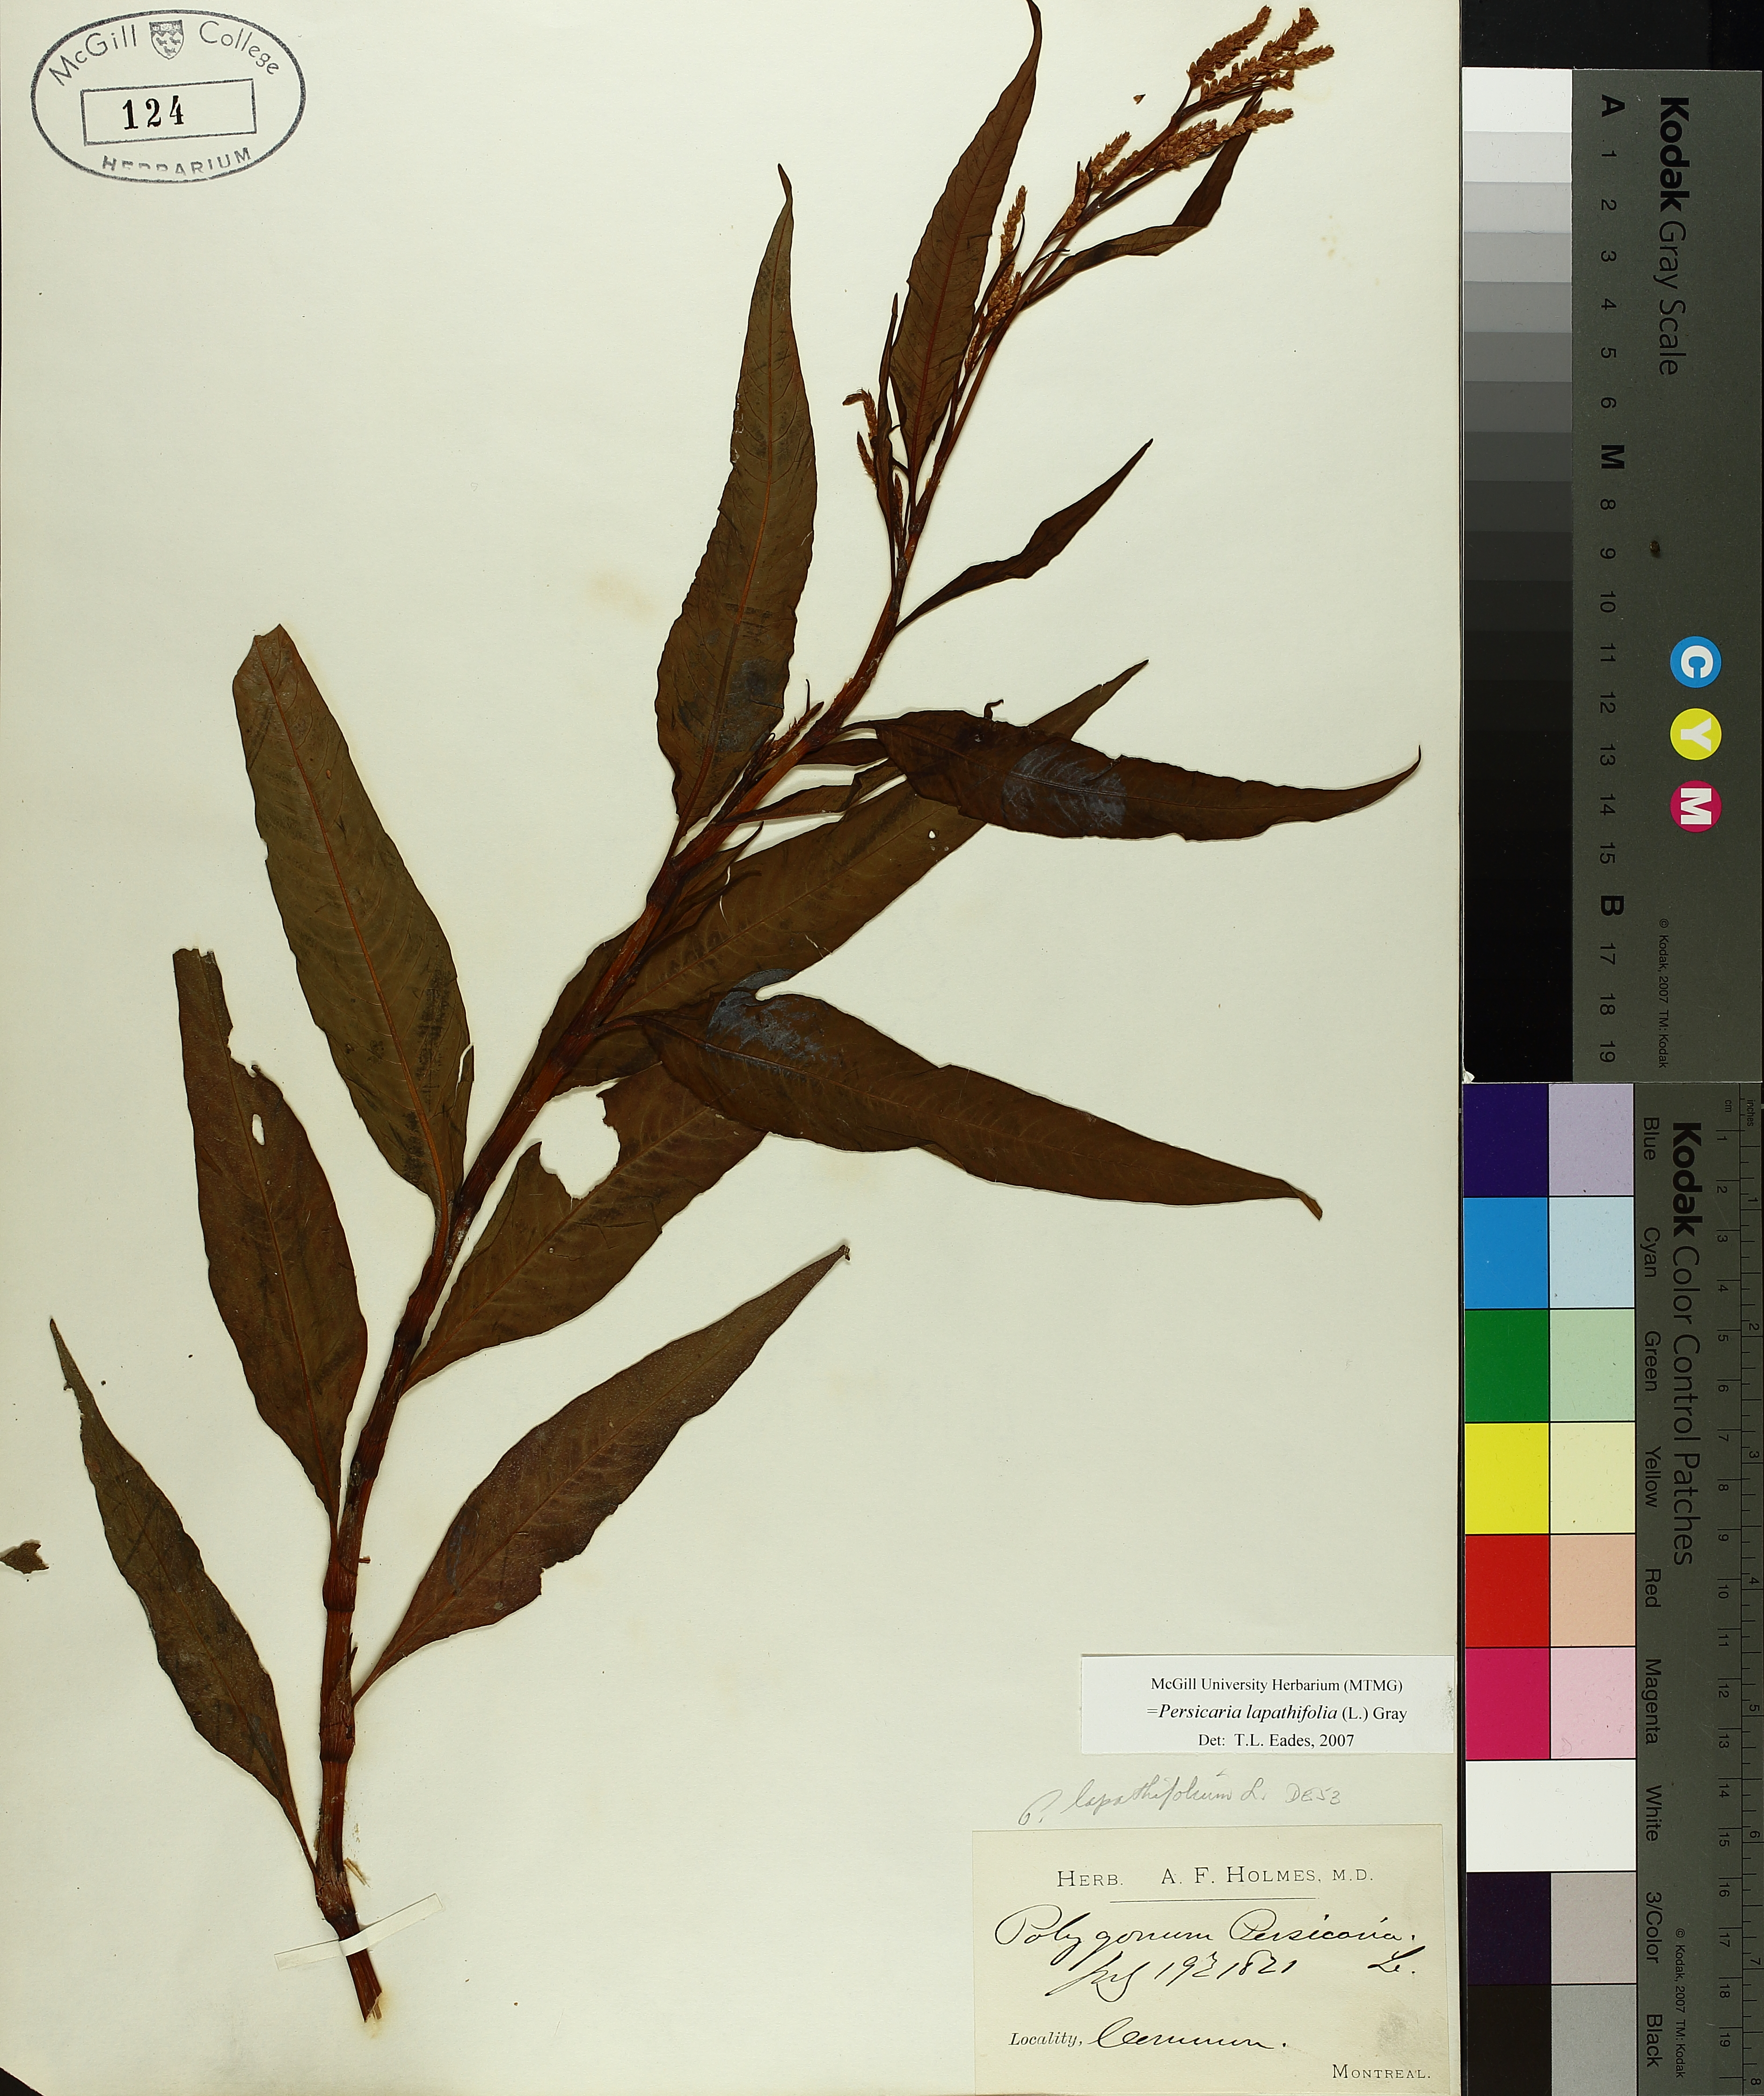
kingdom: Plantae
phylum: Tracheophyta
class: Magnoliopsida
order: Caryophyllales
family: Polygonaceae
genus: Persicaria
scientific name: Persicaria lapathifolia
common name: Curlytop knotweed
